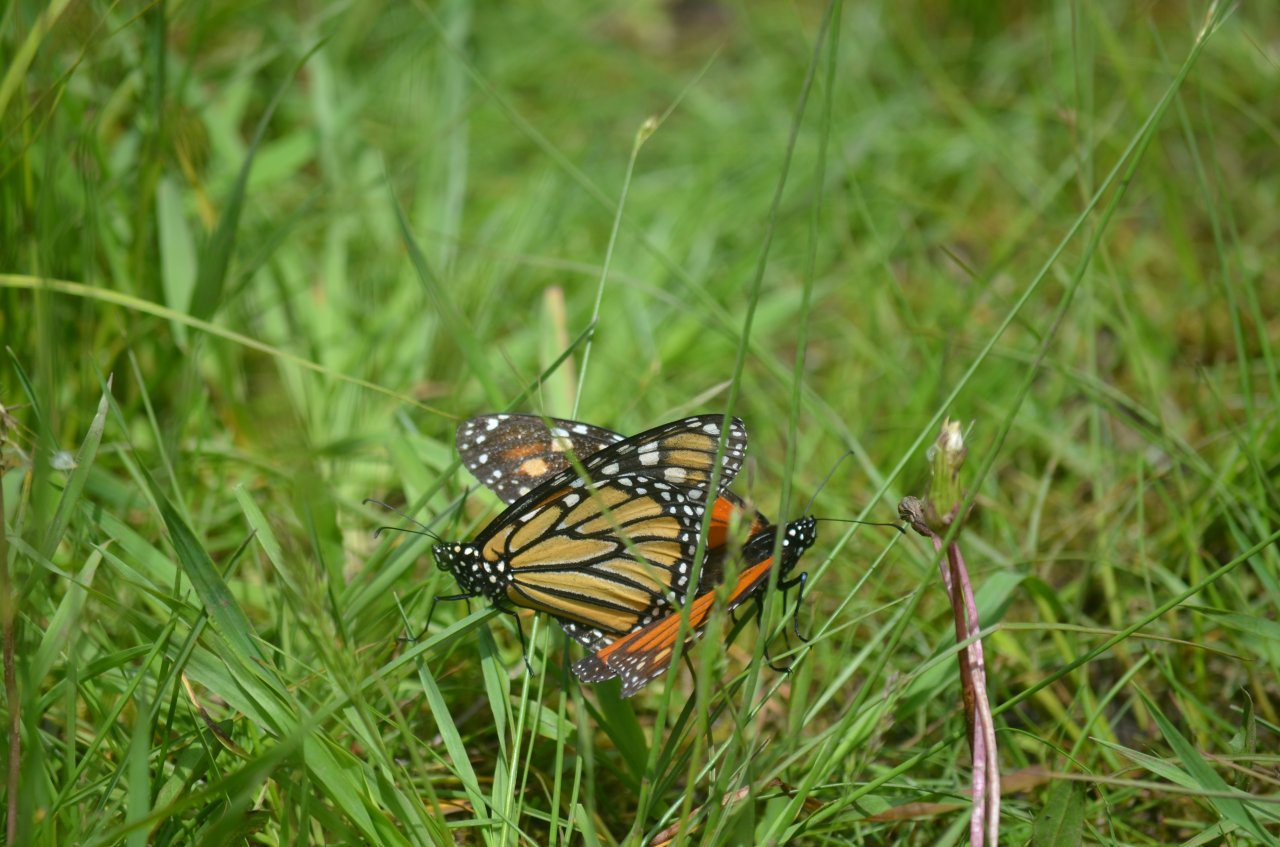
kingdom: Animalia
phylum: Arthropoda
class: Insecta
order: Lepidoptera
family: Nymphalidae
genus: Danaus
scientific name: Danaus plexippus
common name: Monarch
